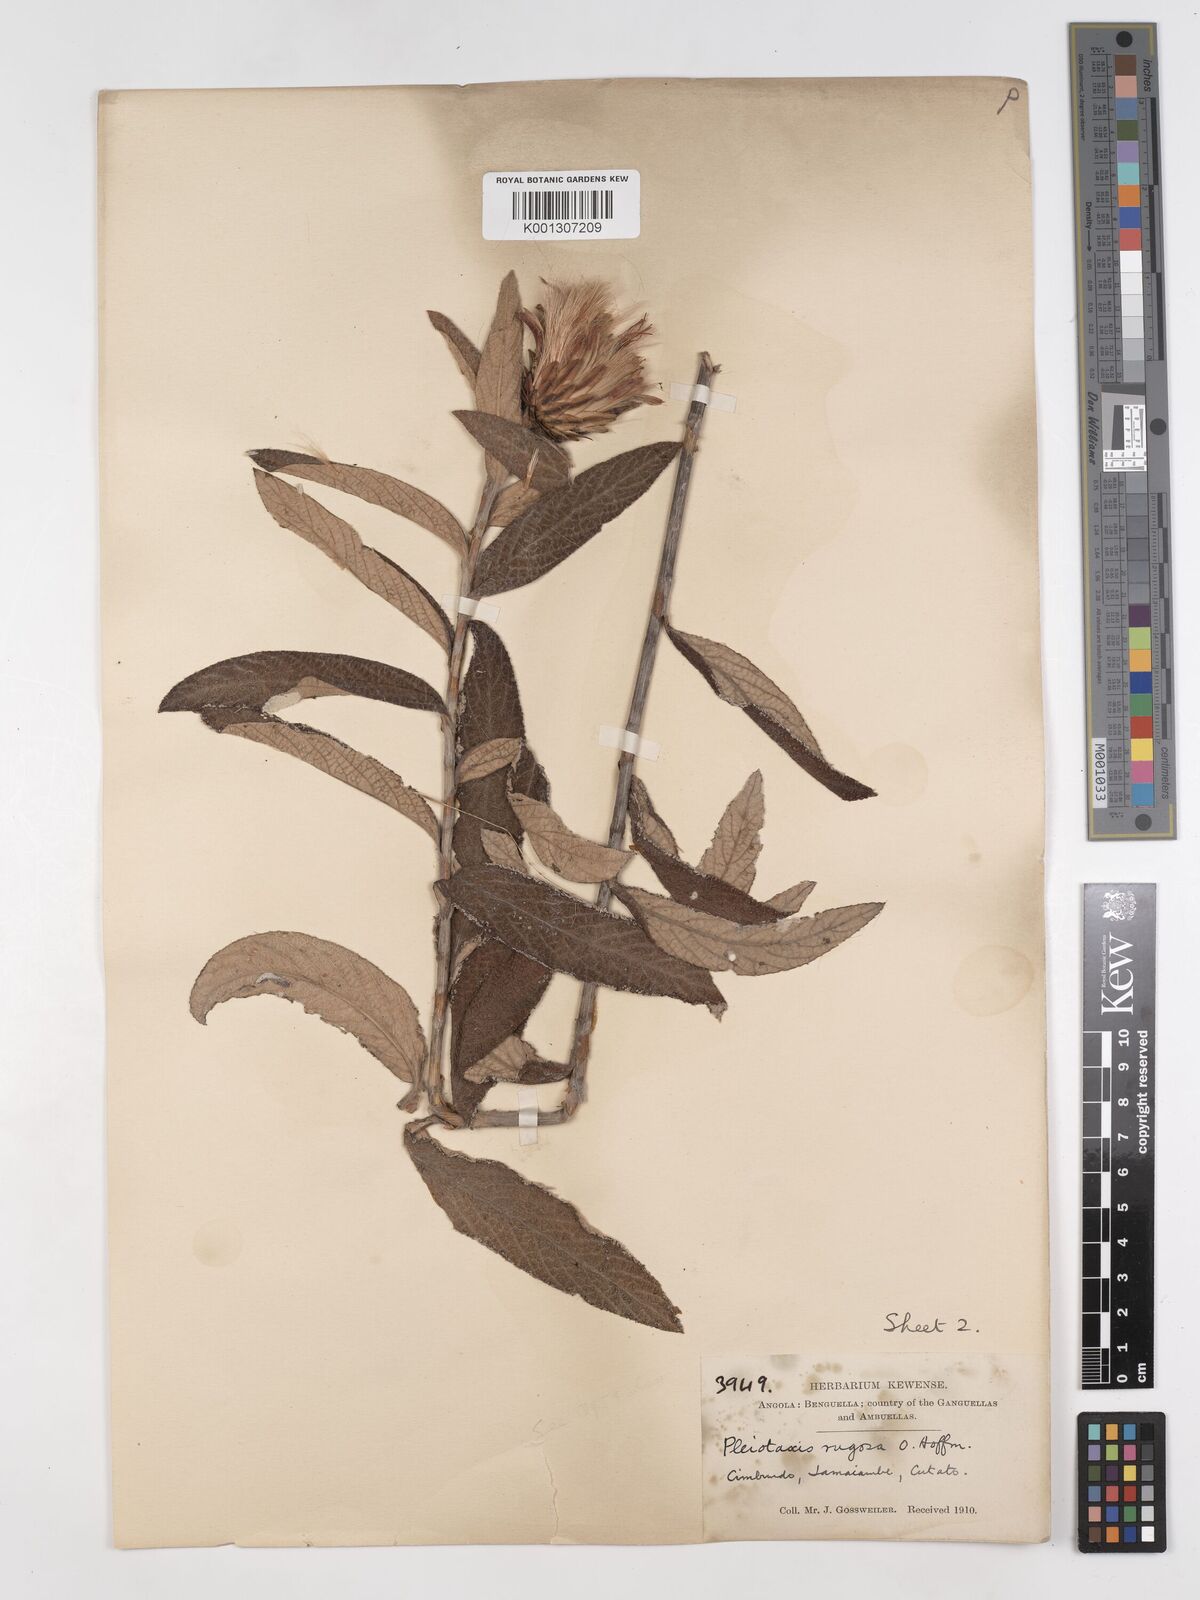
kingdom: Plantae
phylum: Tracheophyta
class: Magnoliopsida
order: Asterales
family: Asteraceae
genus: Pleiotaxis
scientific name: Pleiotaxis rugosa
